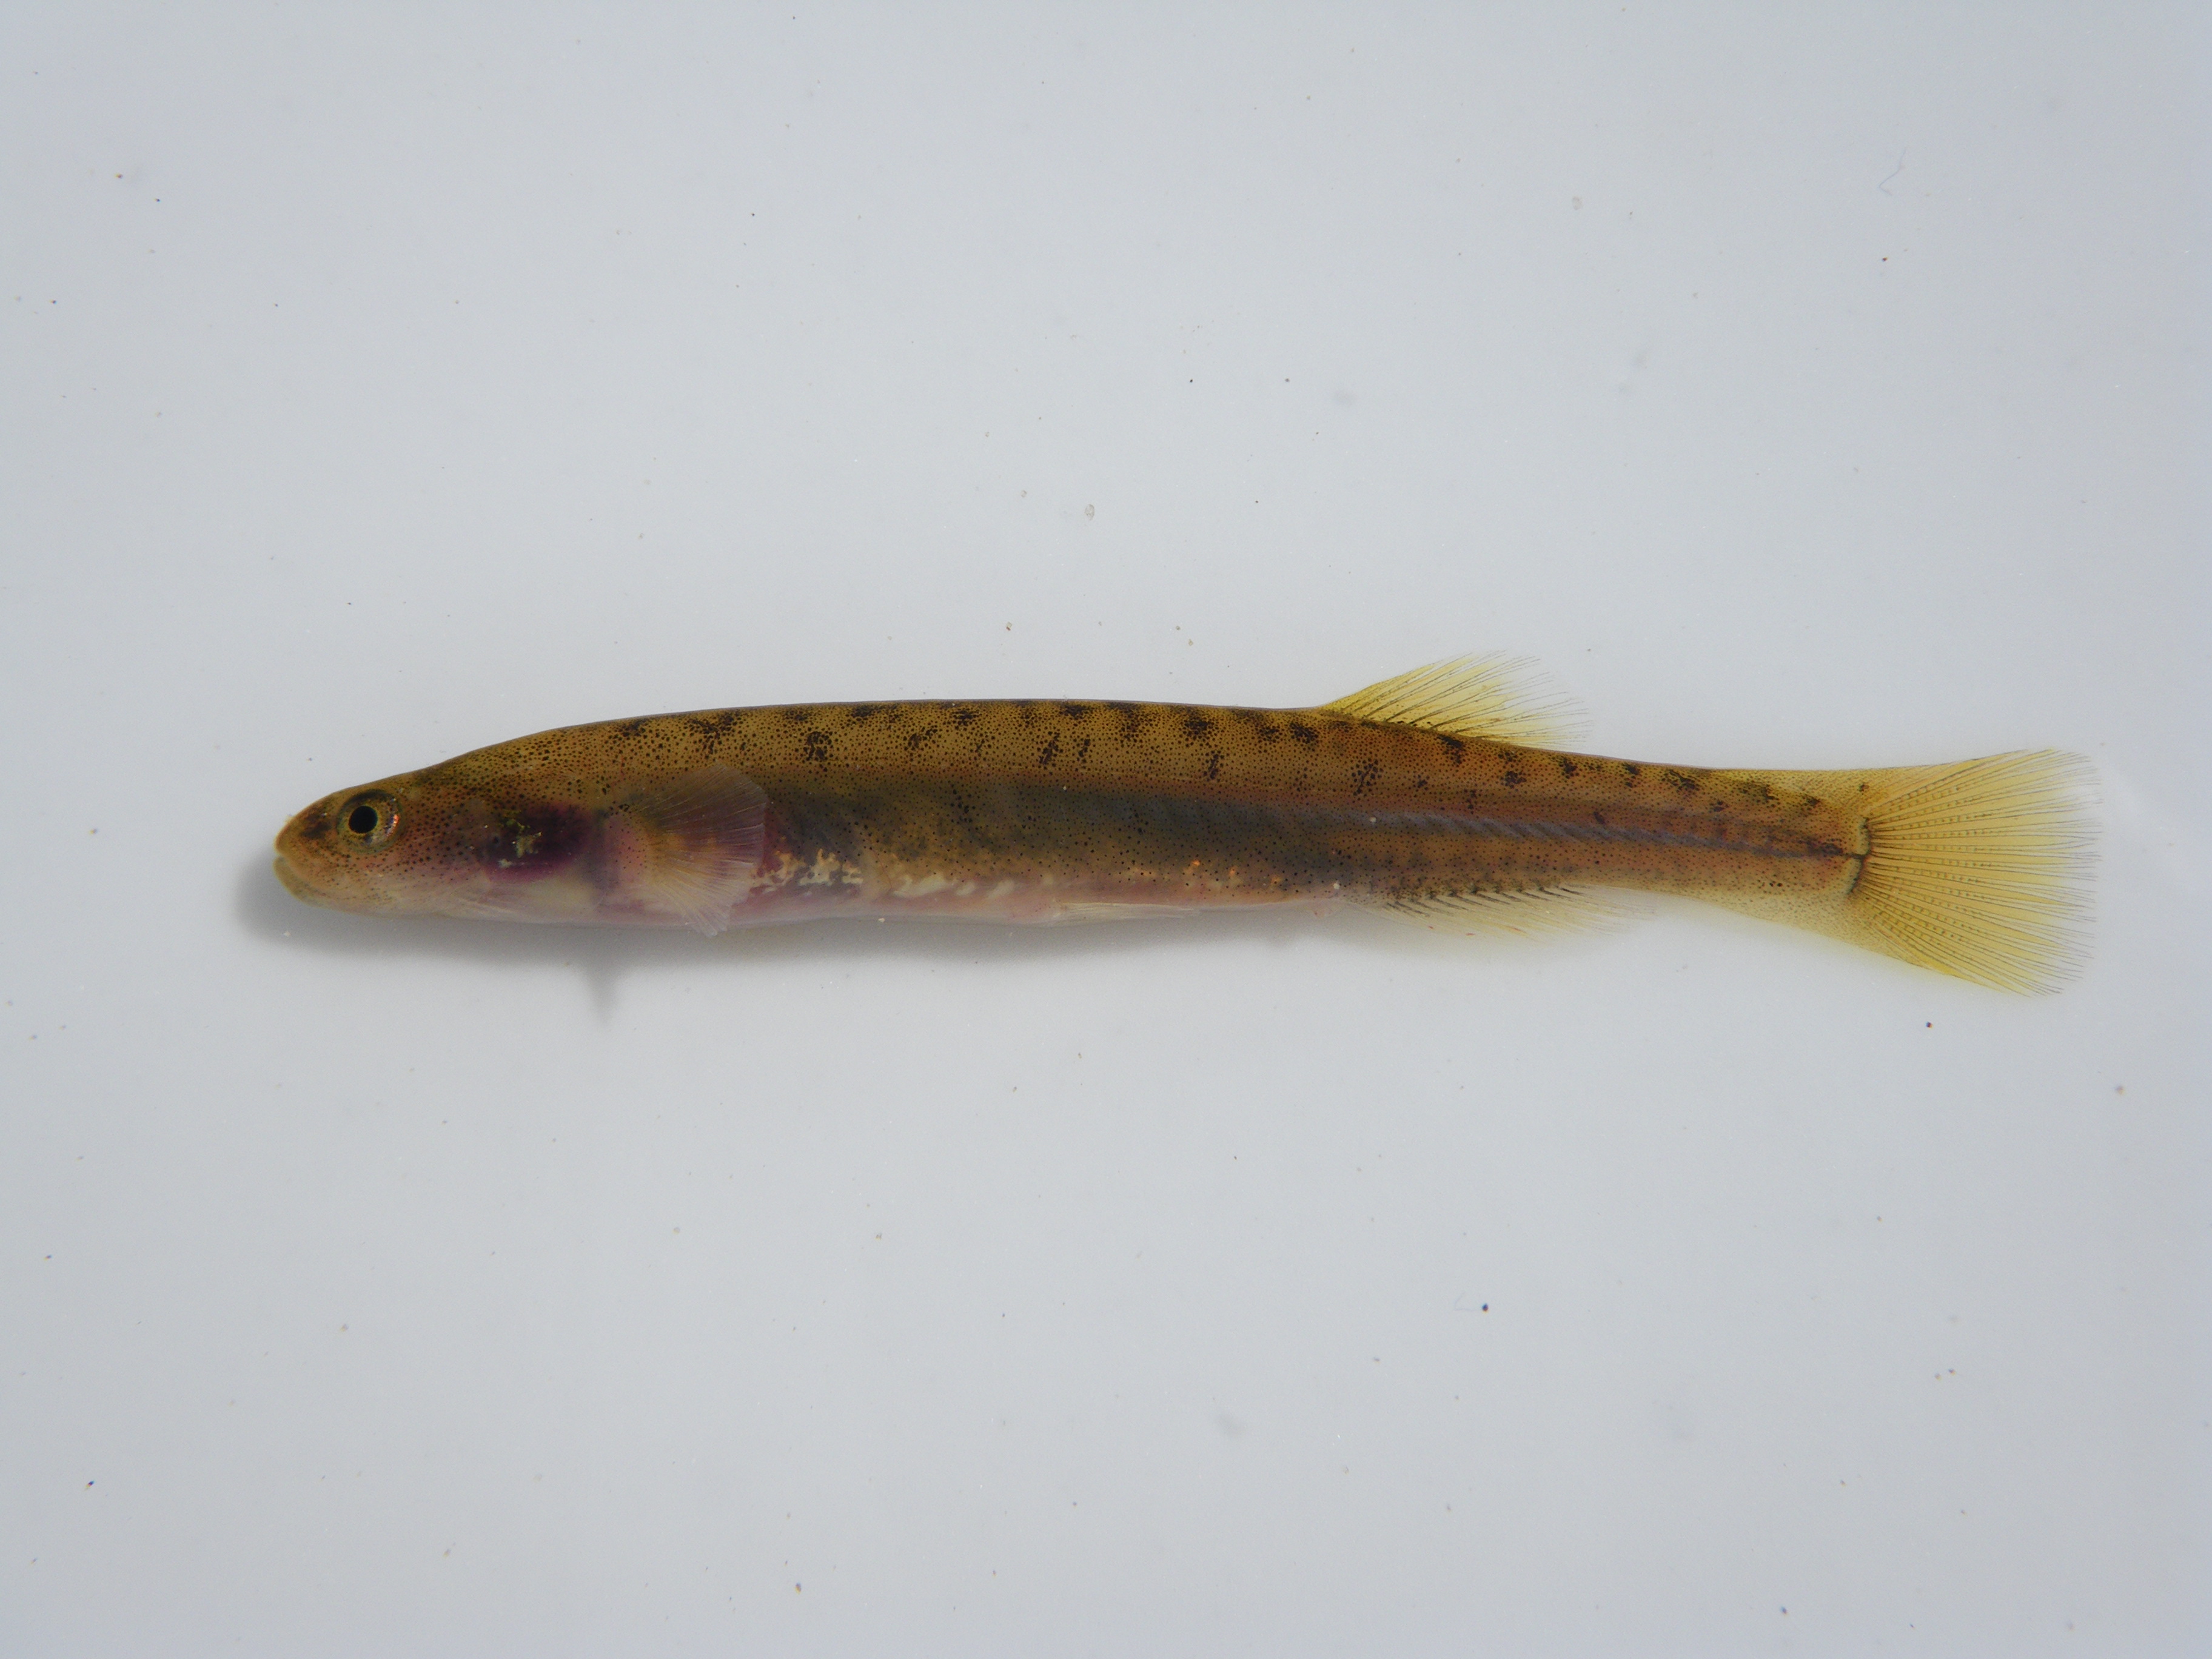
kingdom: Animalia
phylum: Chordata
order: Osmeriformes
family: Galaxiidae
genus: Galaxias
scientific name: Galaxias
